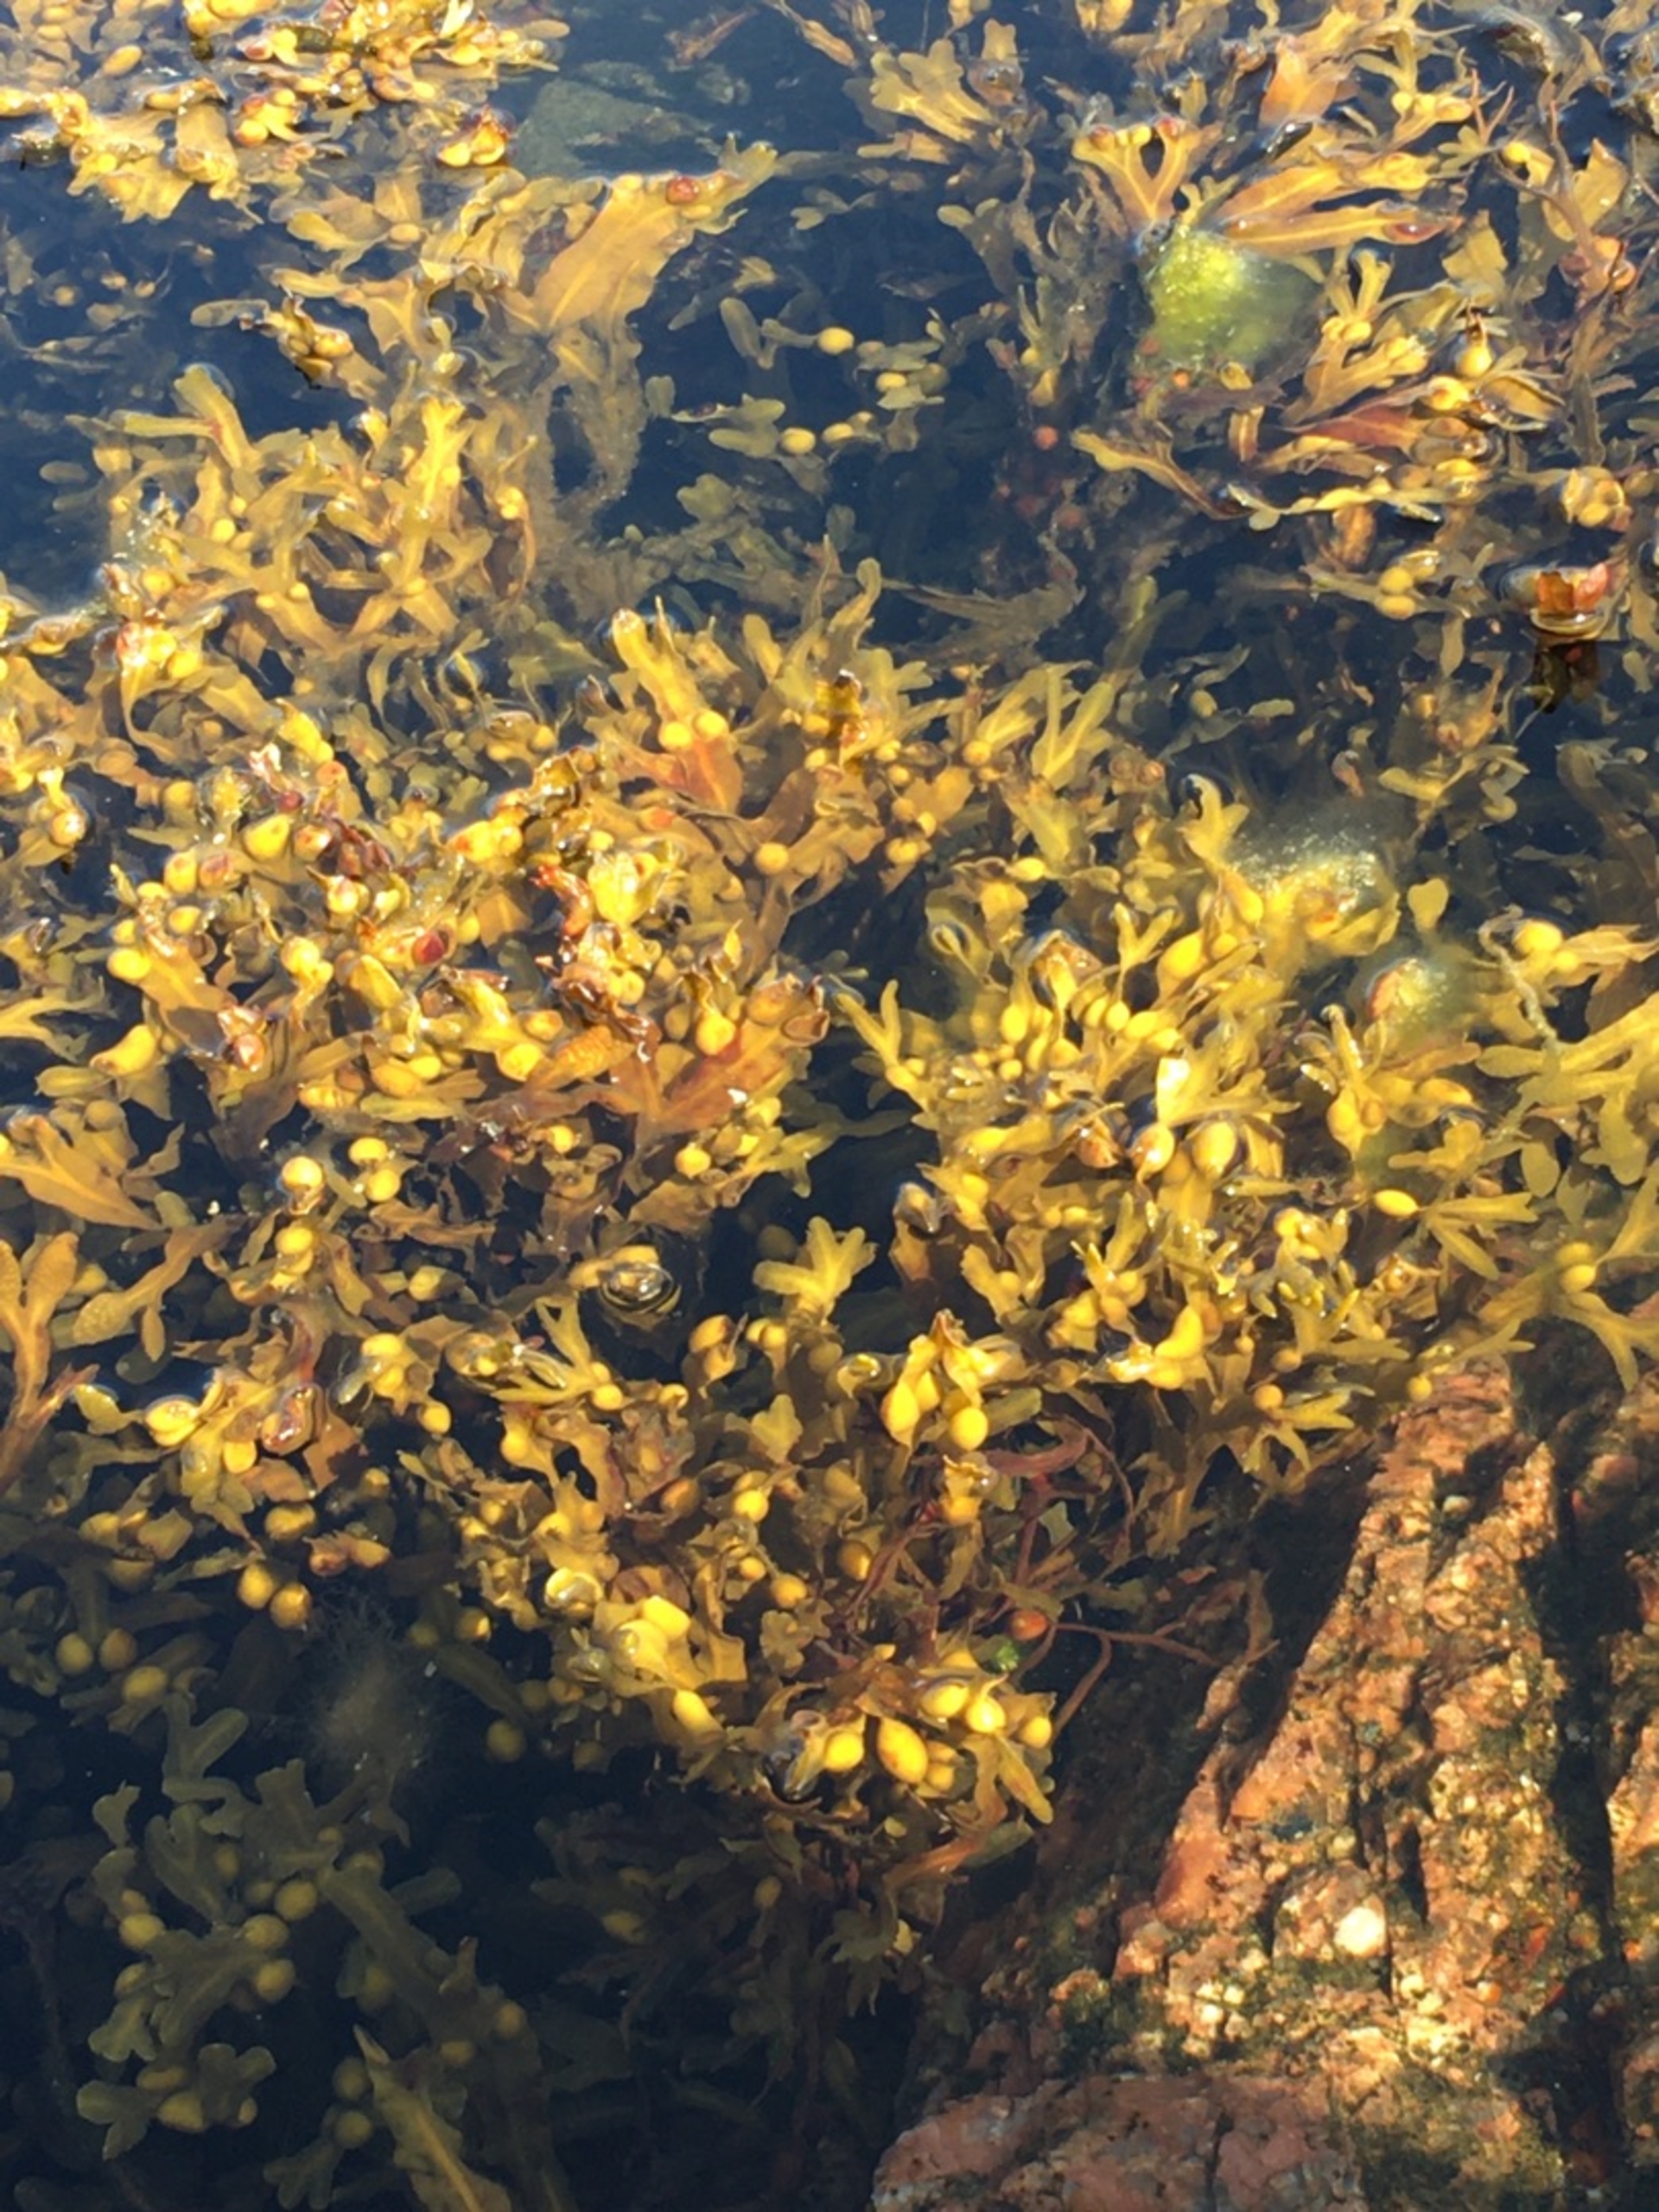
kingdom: Chromista
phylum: Ochrophyta
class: Phaeophyceae
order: Fucales
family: Fucaceae
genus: Fucus
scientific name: Fucus vesiculosus
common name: Blæretang
